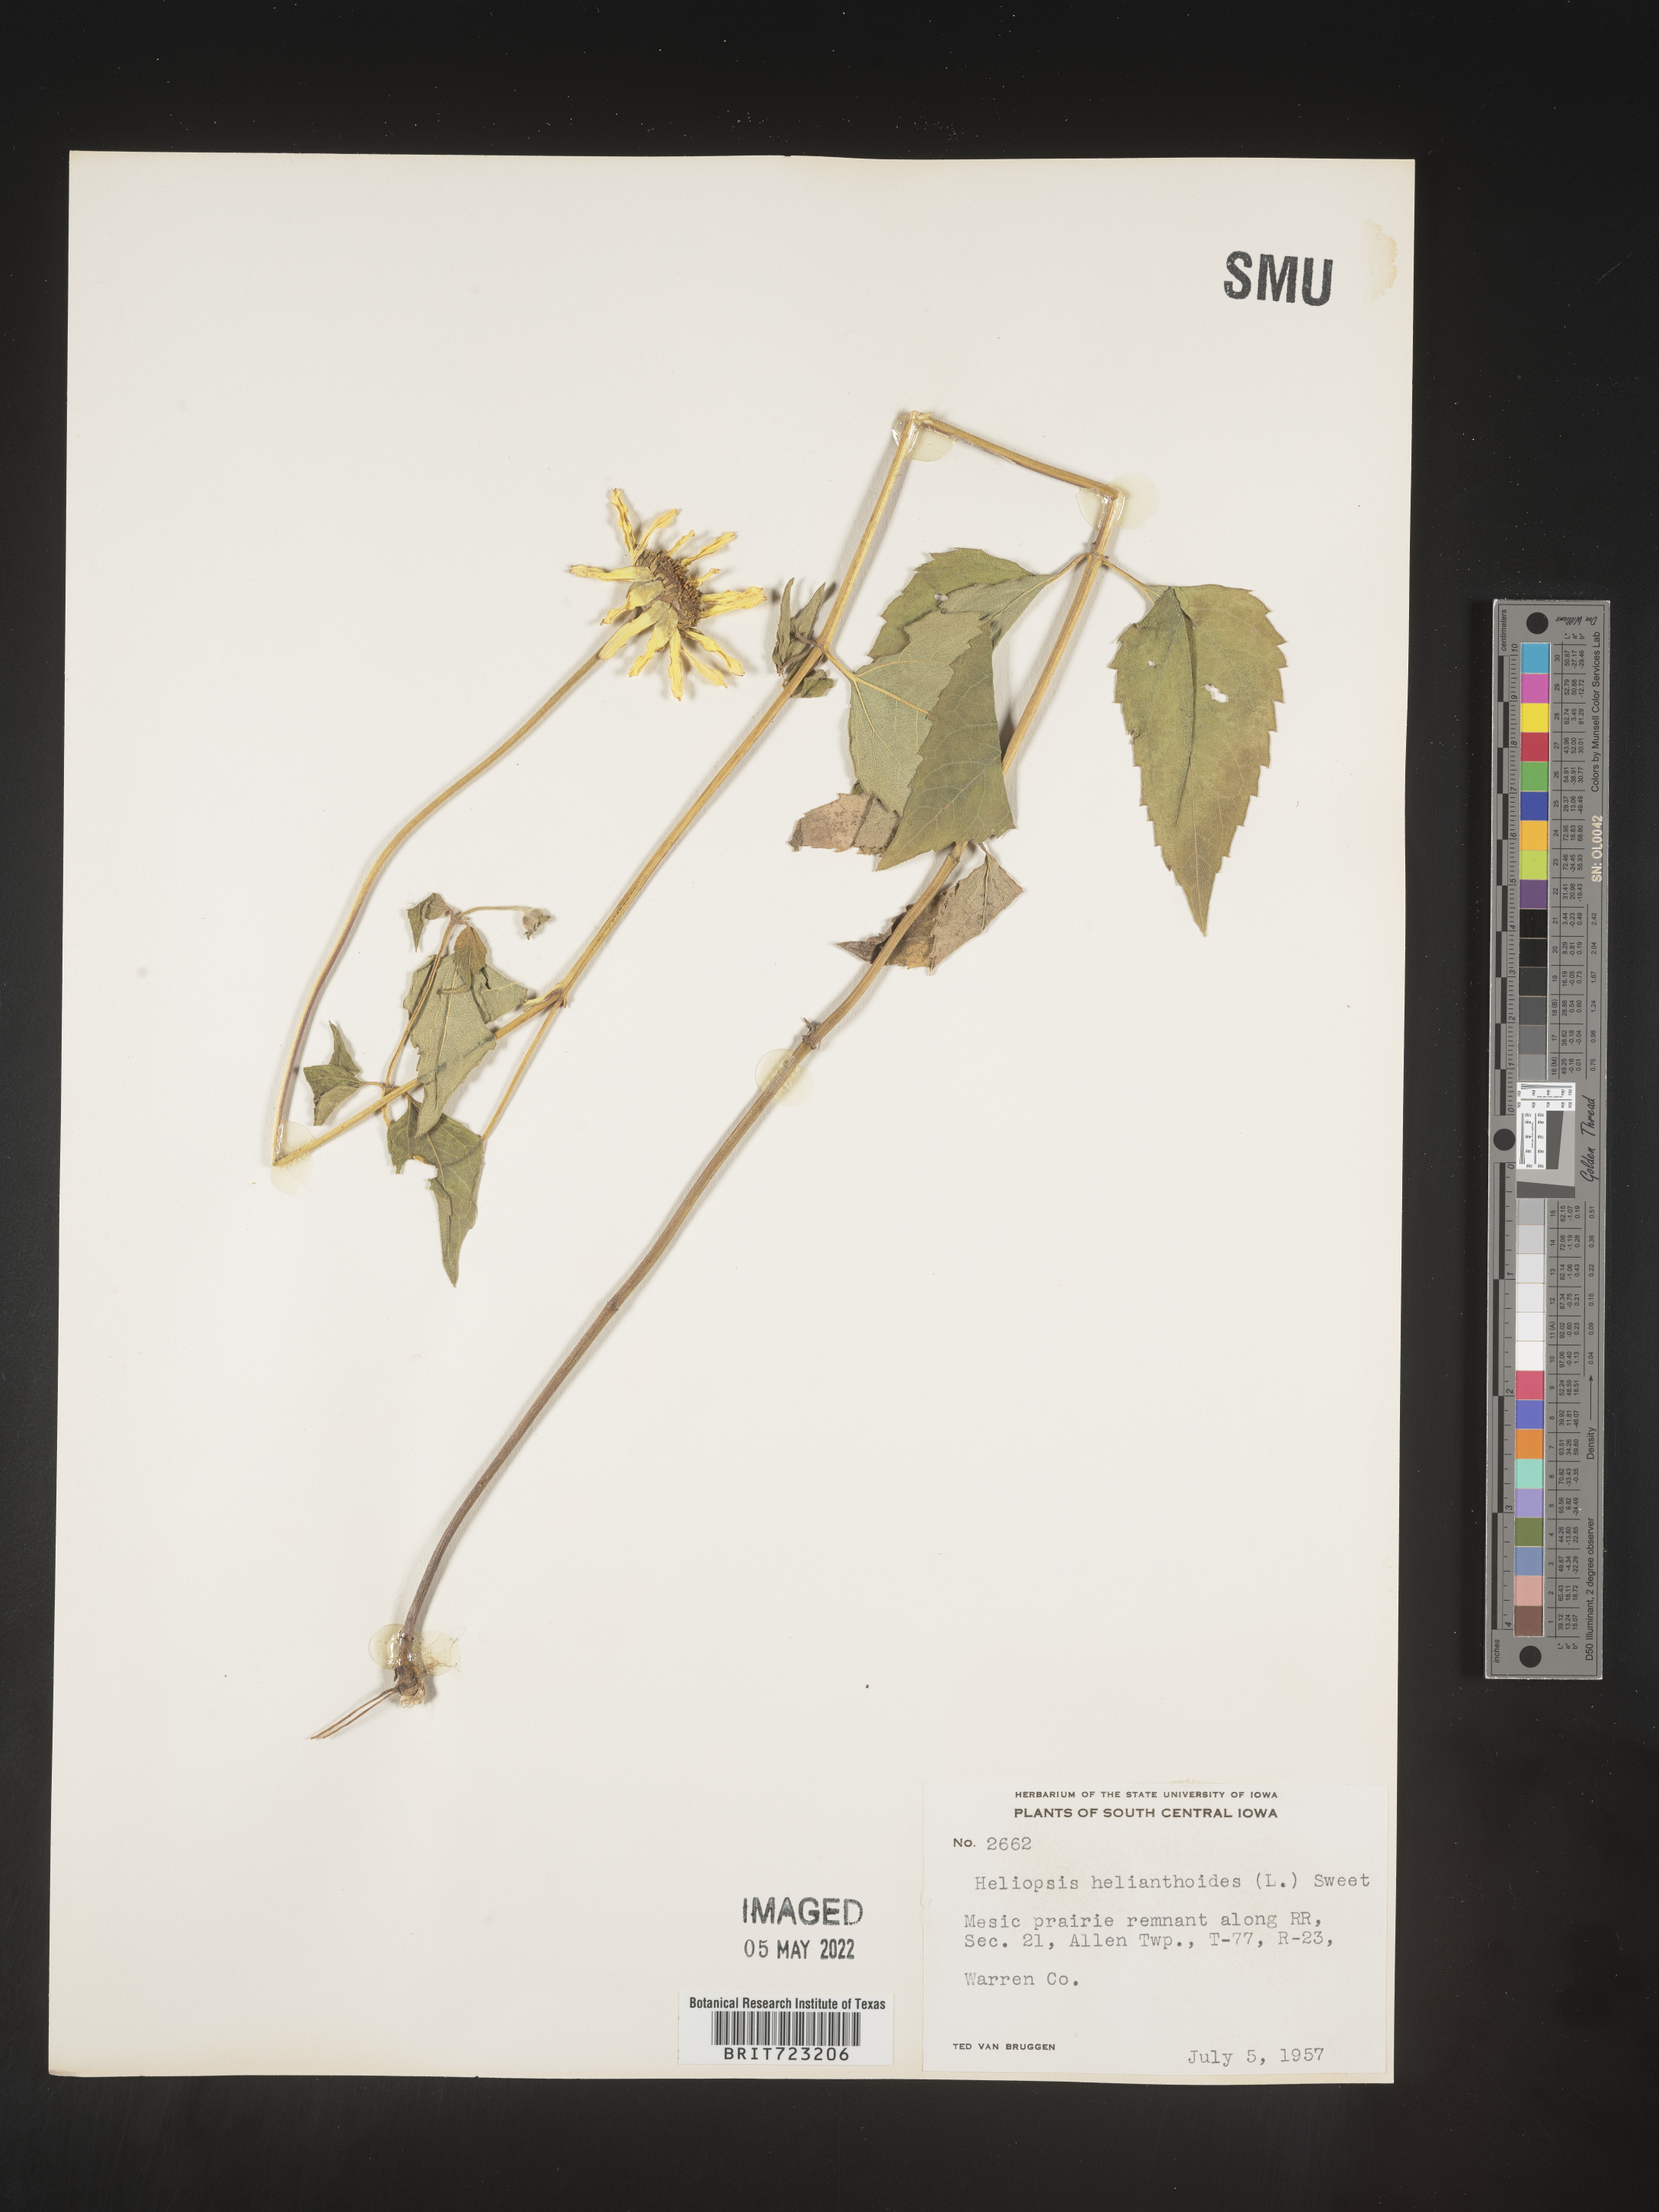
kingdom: Plantae
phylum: Tracheophyta
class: Magnoliopsida
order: Asterales
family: Asteraceae
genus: Heliopsis
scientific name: Heliopsis helianthoides
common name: False sunflower
